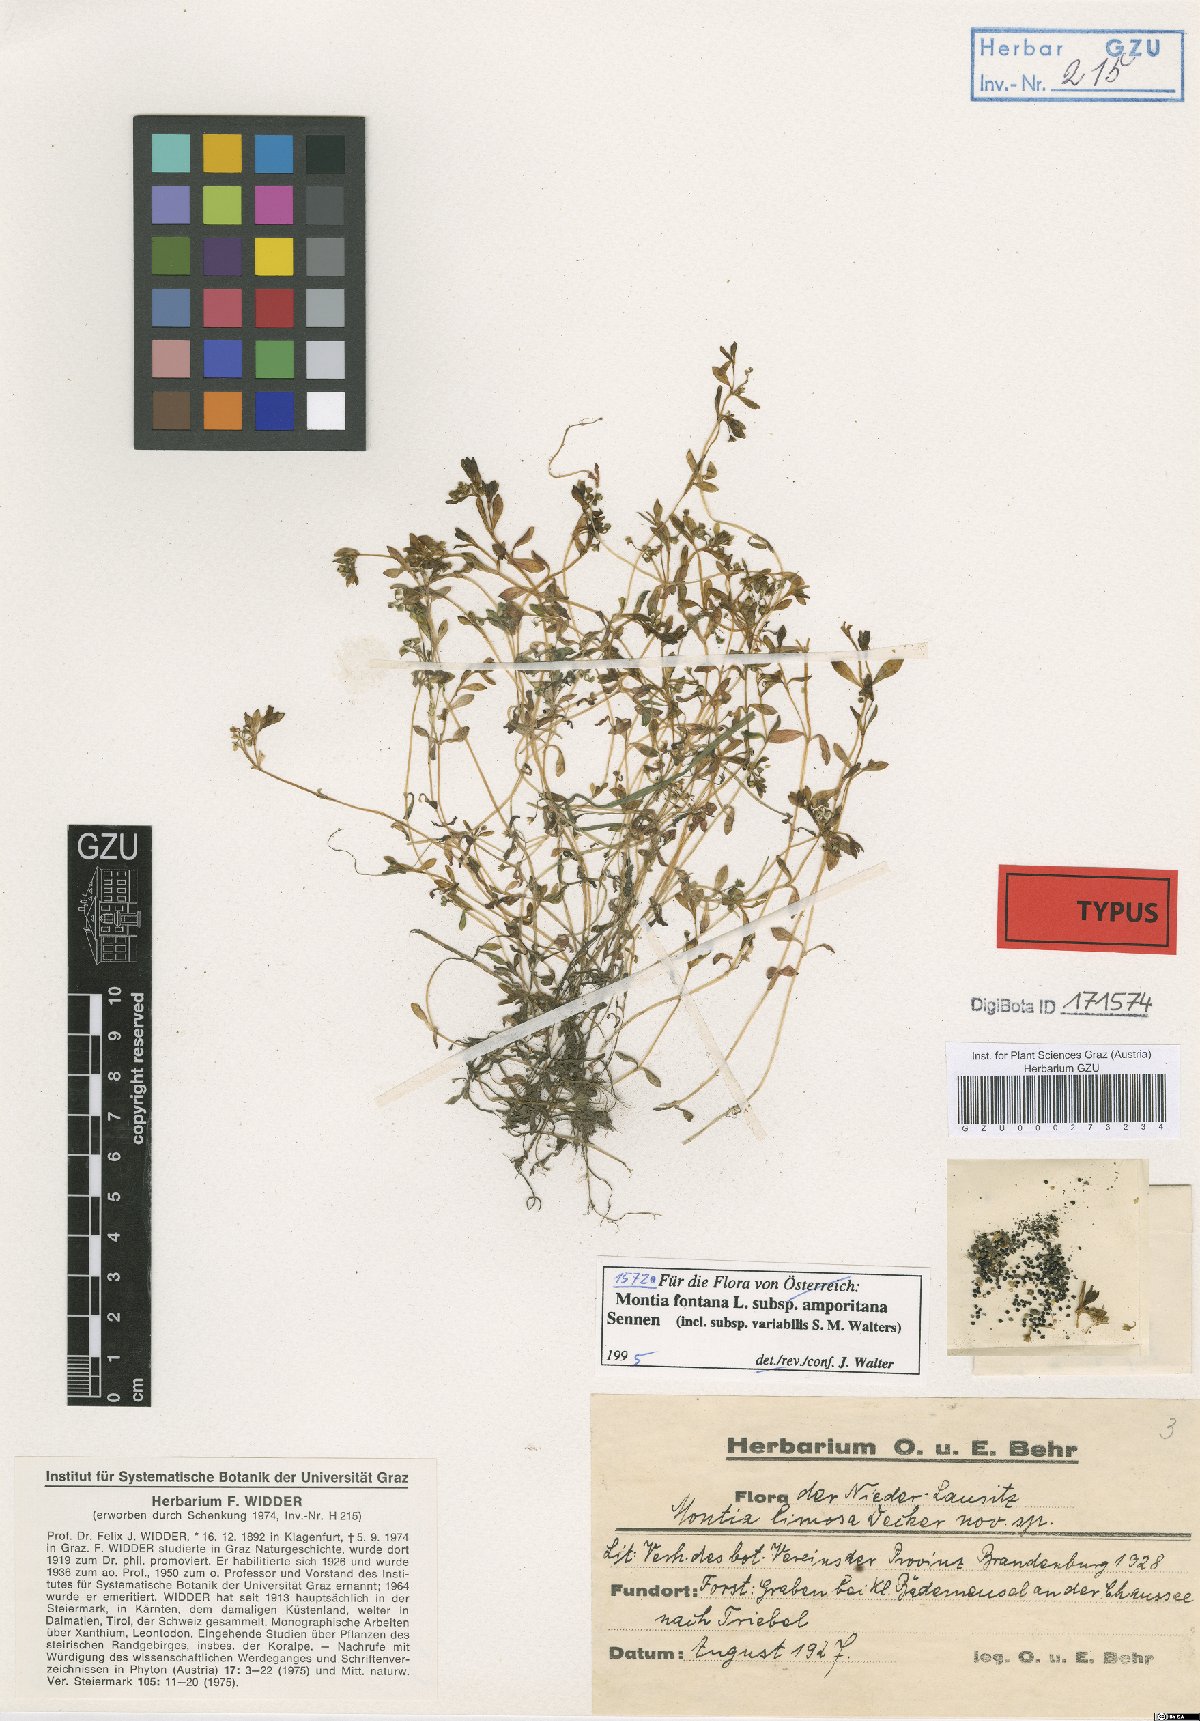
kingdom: Plantae
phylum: Tracheophyta
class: Magnoliopsida
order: Caryophyllales
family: Montiaceae
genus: Montia
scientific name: Montia fontana
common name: Blinks
